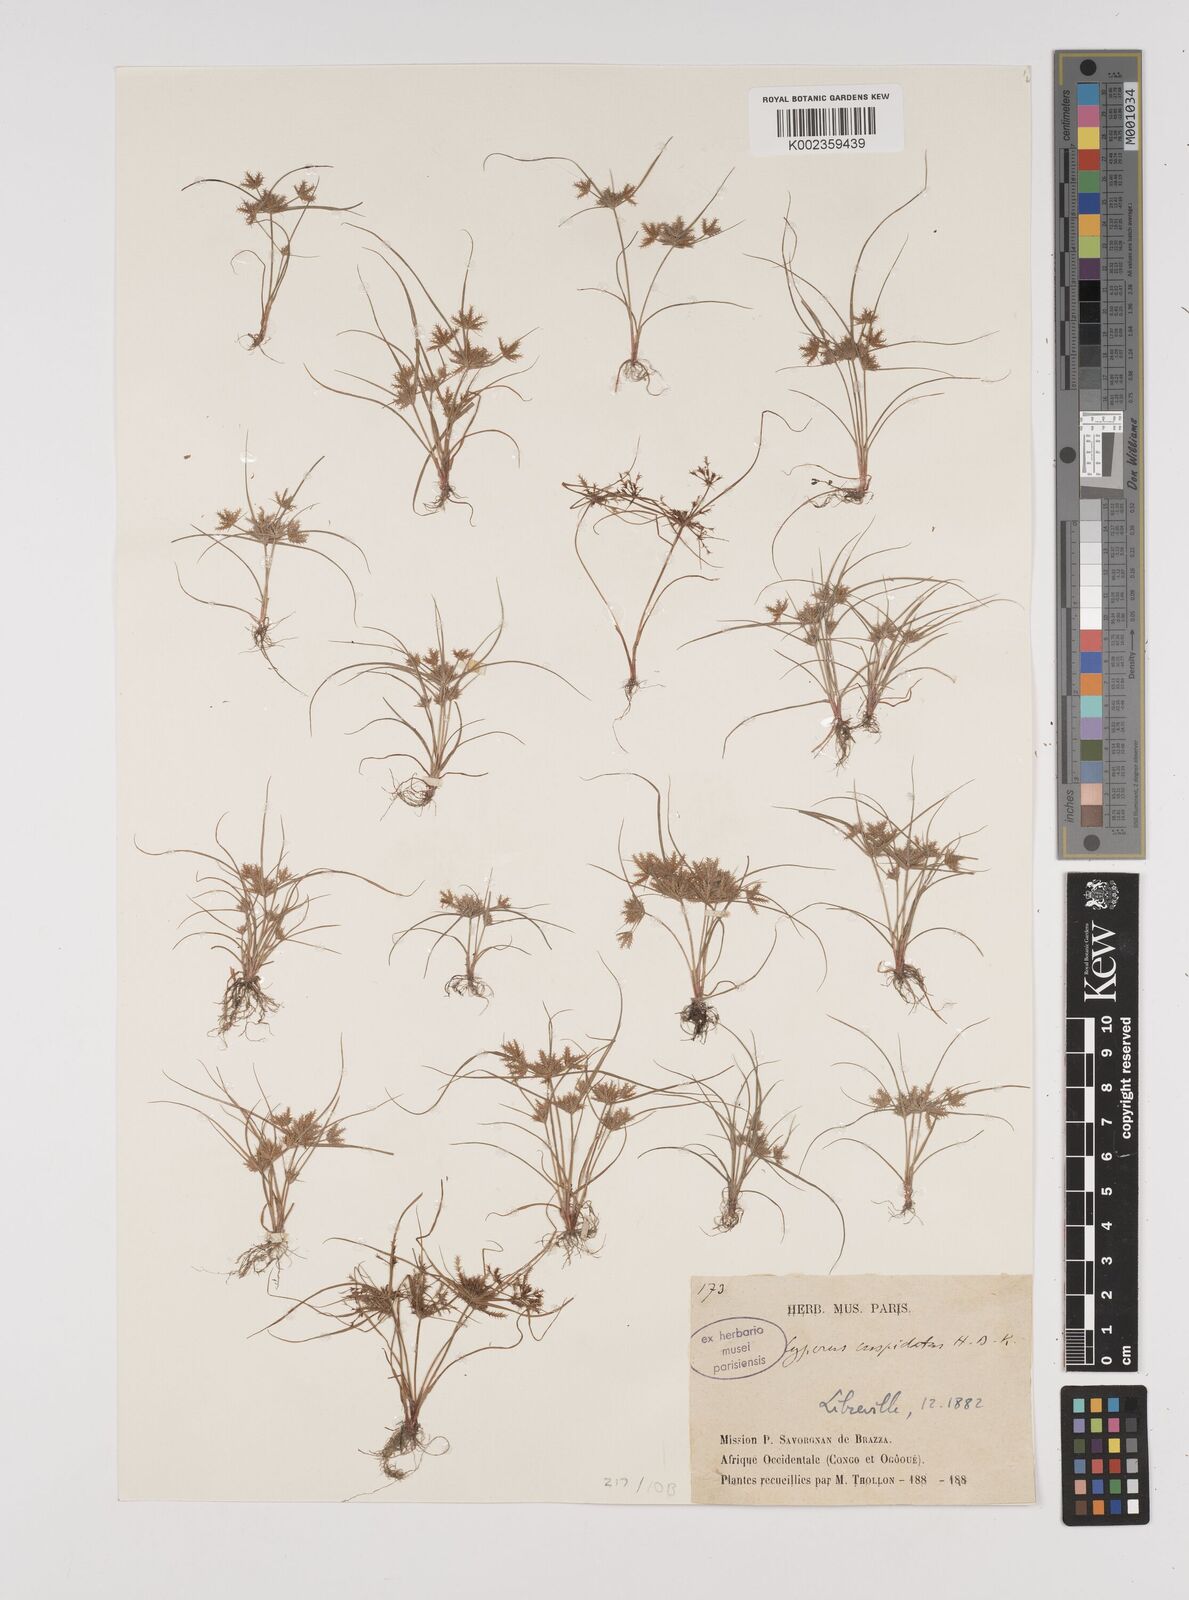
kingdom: Plantae
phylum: Tracheophyta
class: Liliopsida
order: Poales
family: Cyperaceae
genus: Cyperus
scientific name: Cyperus cuspidatus
